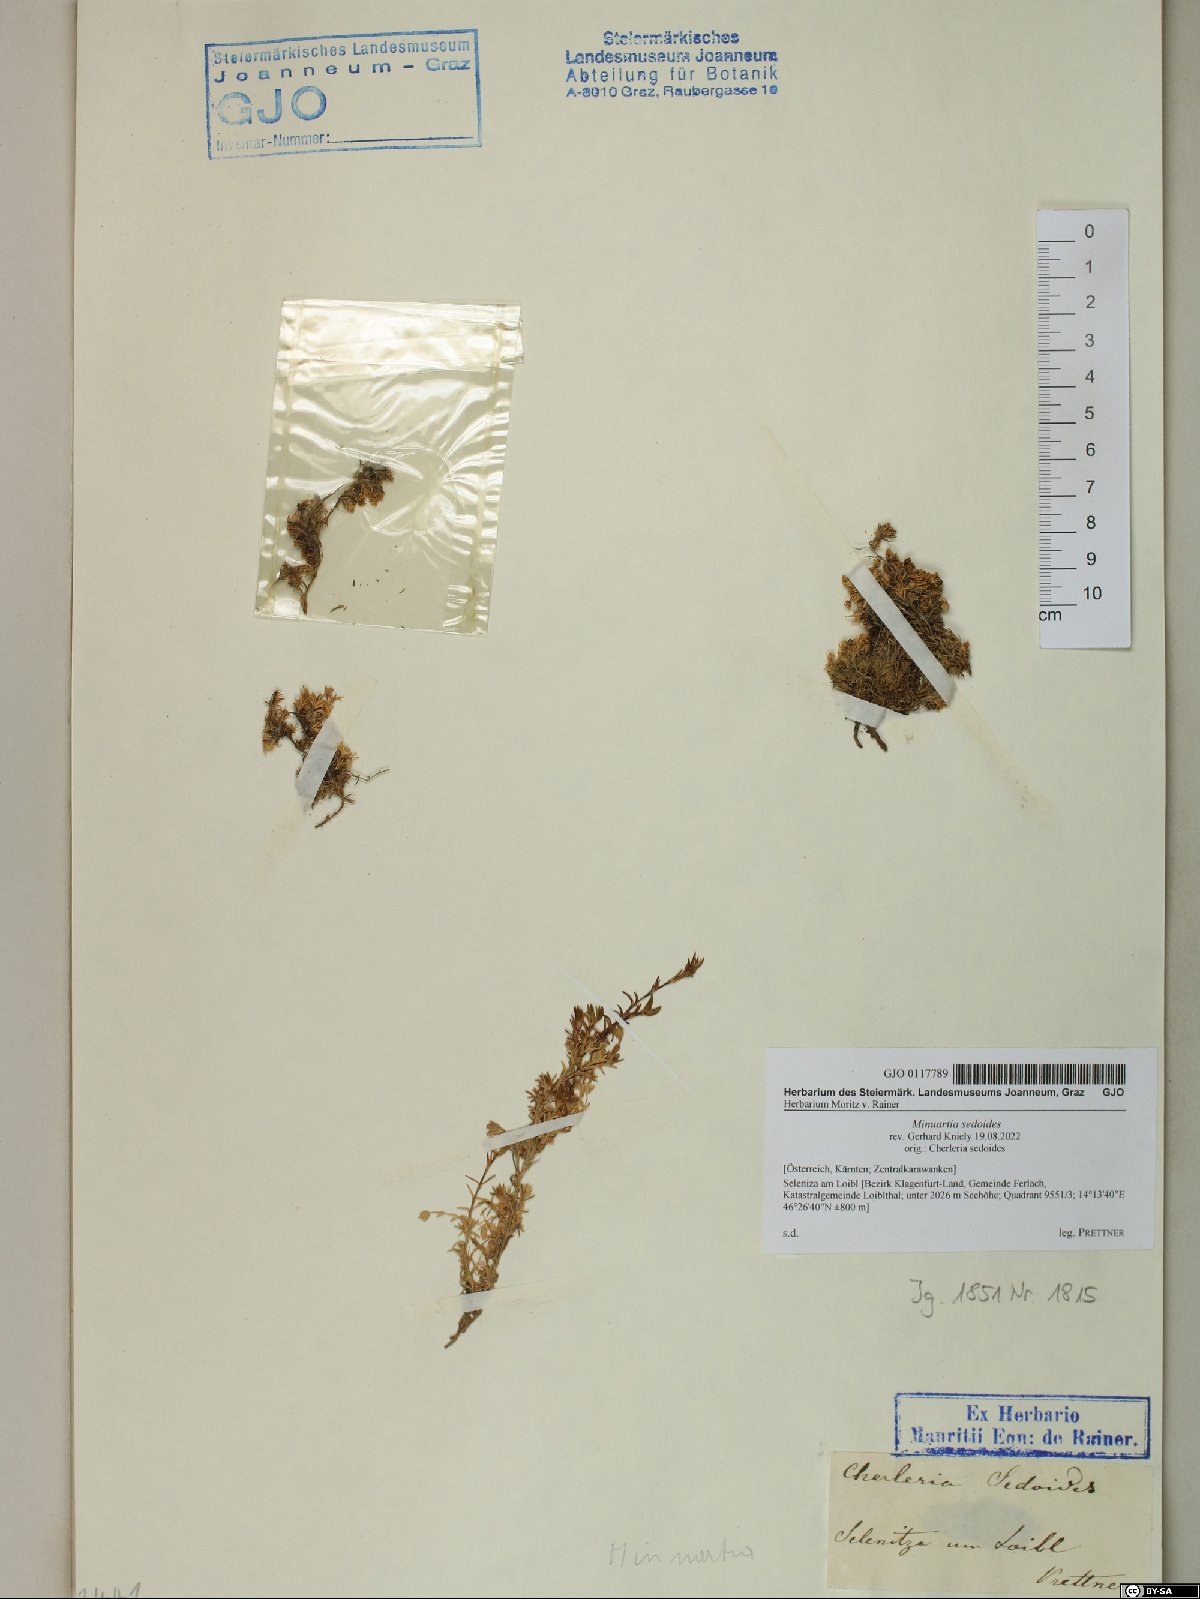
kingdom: Plantae
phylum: Tracheophyta
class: Magnoliopsida
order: Caryophyllales
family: Caryophyllaceae
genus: Cherleria
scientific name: Cherleria sedoides
